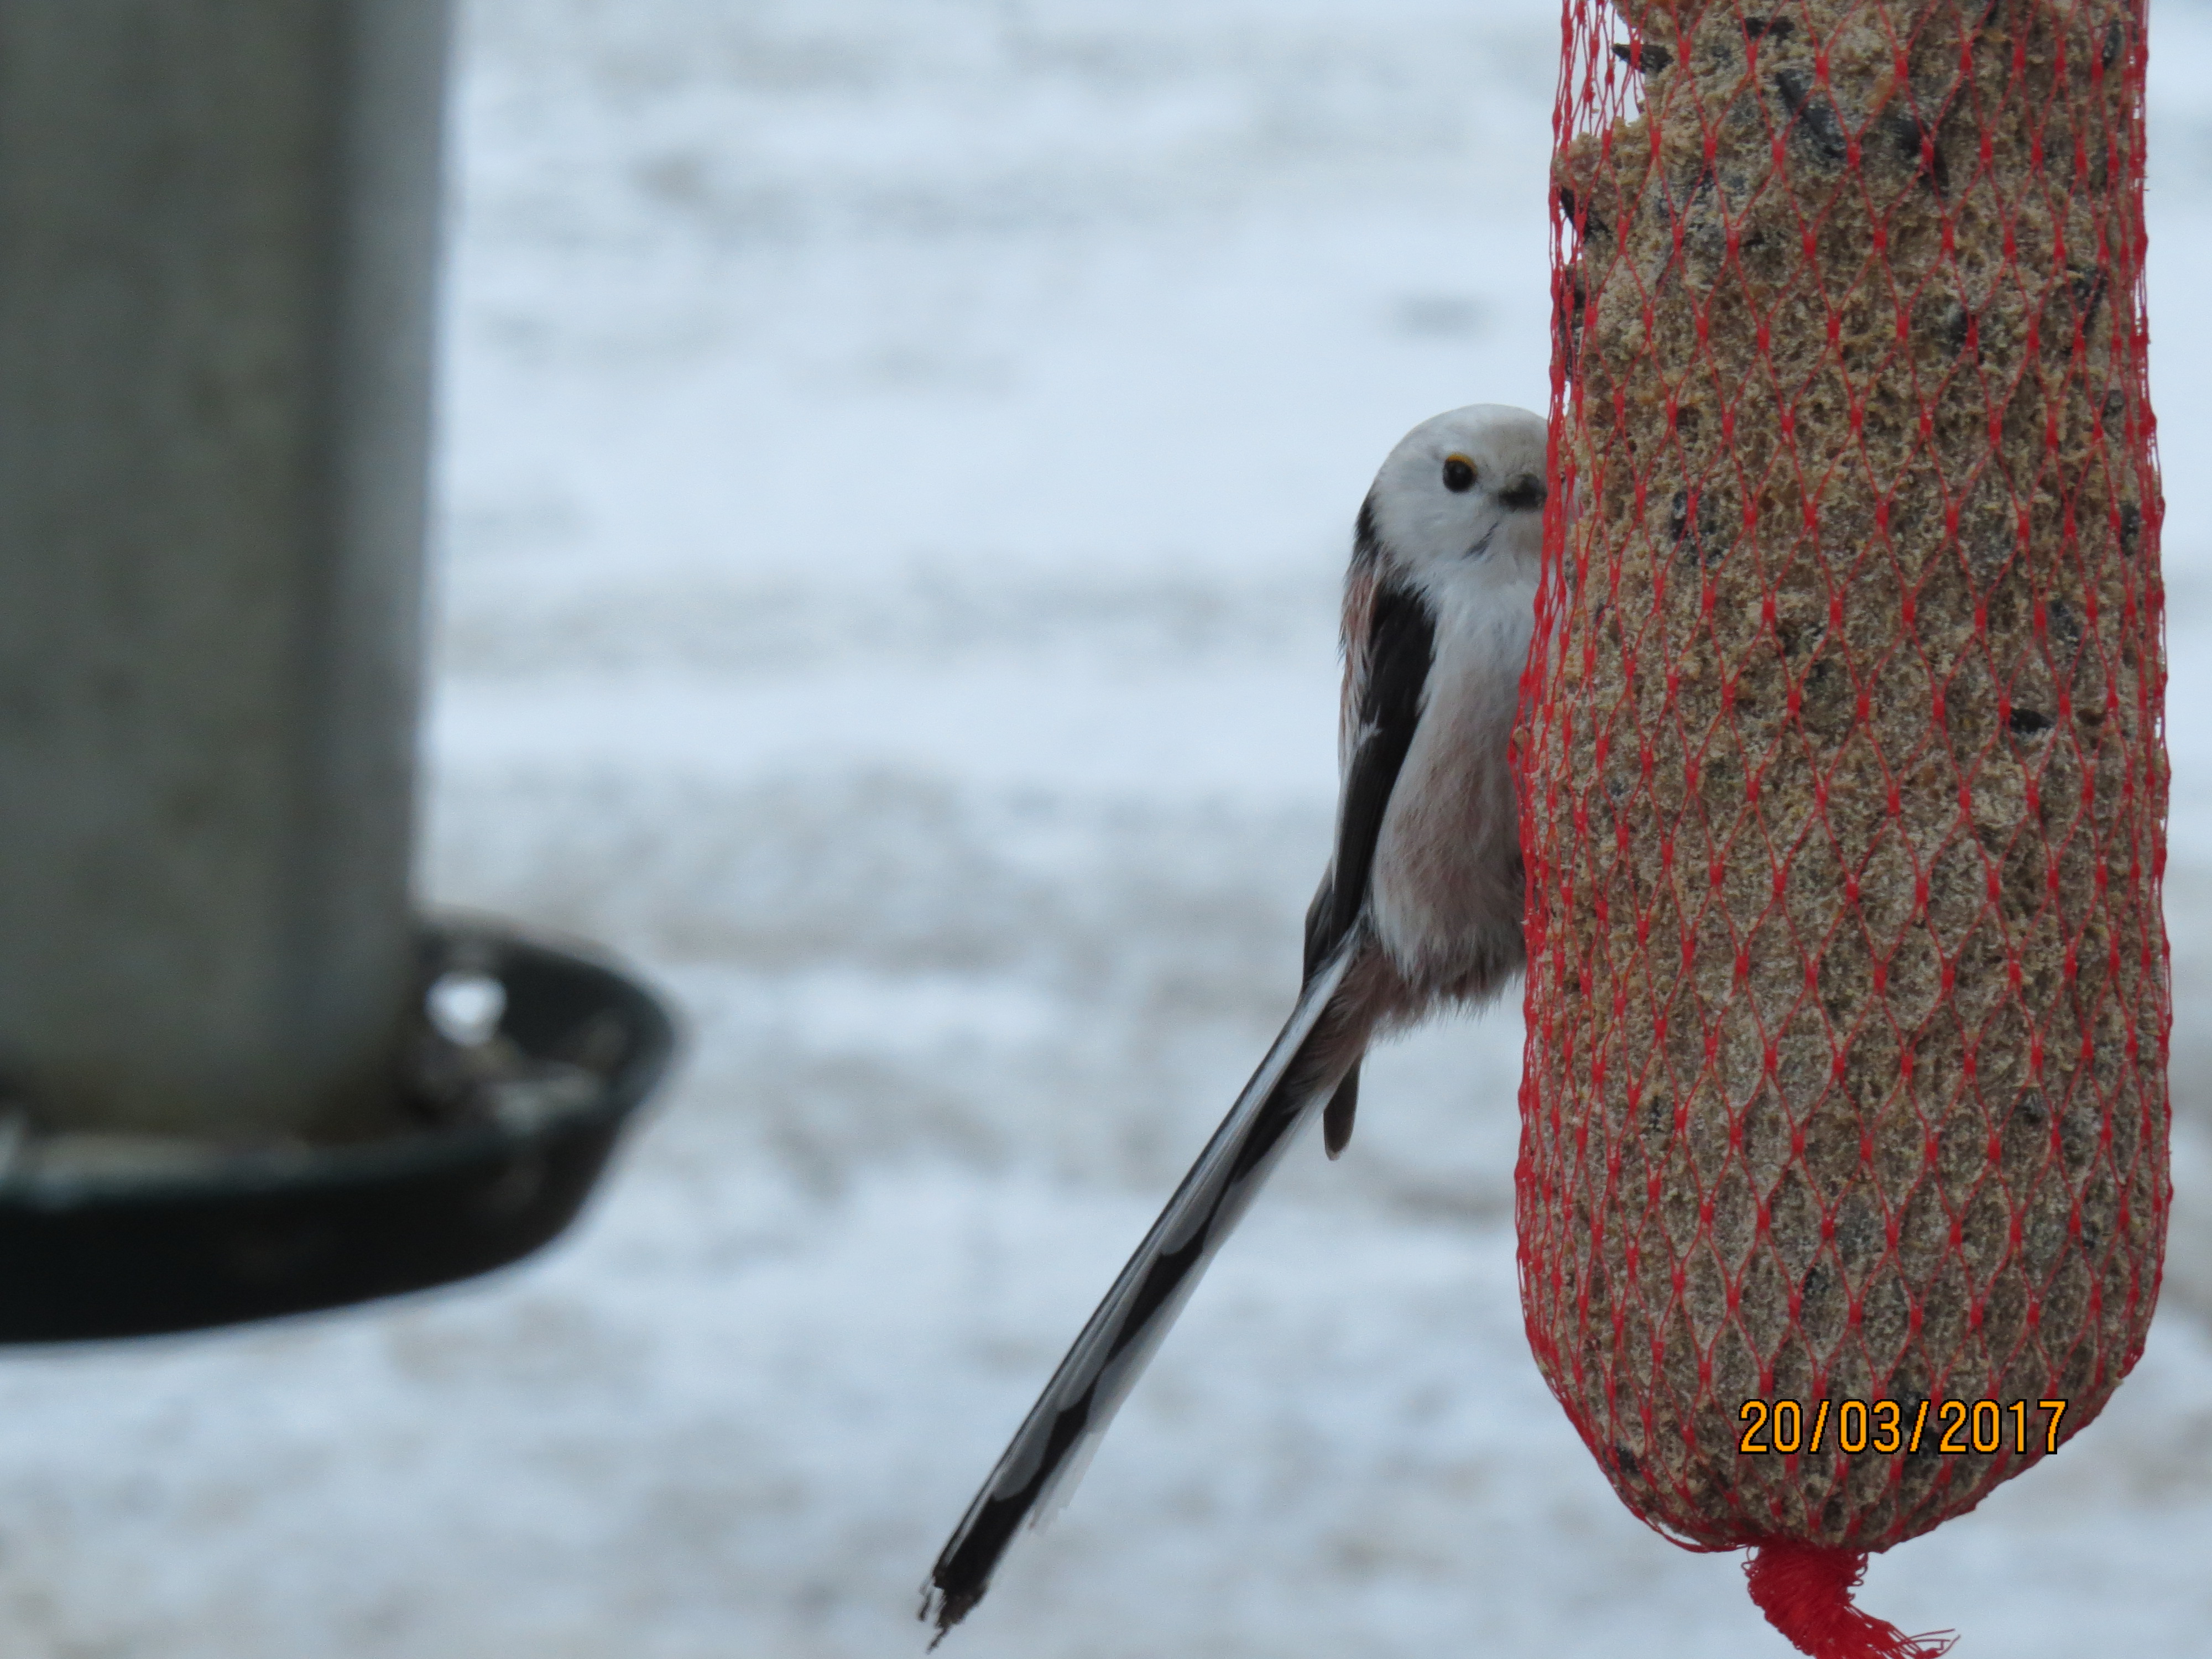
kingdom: Animalia
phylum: Chordata
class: Aves
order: Passeriformes
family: Aegithalidae
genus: Aegithalos
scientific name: Aegithalos caudatus
